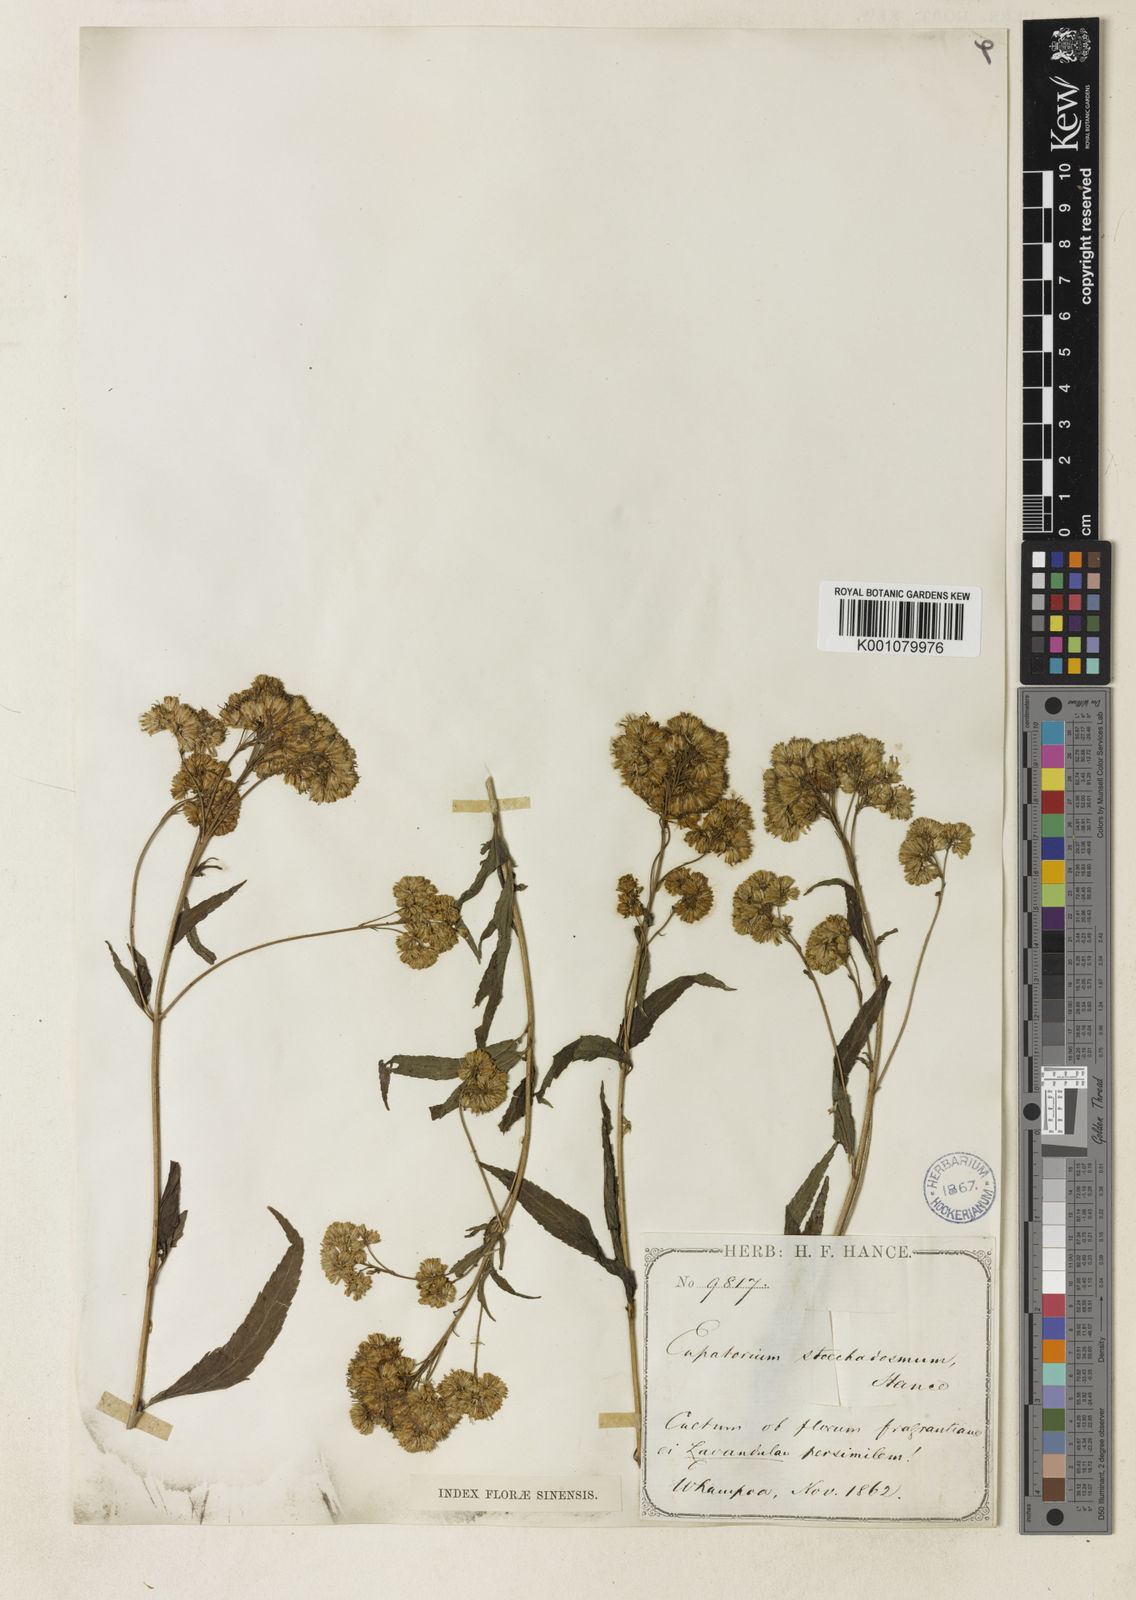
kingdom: Plantae
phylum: Tracheophyta
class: Magnoliopsida
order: Asterales
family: Asteraceae
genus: Eupatorium
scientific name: Eupatorium fortunei
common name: Chinese eupatorium
